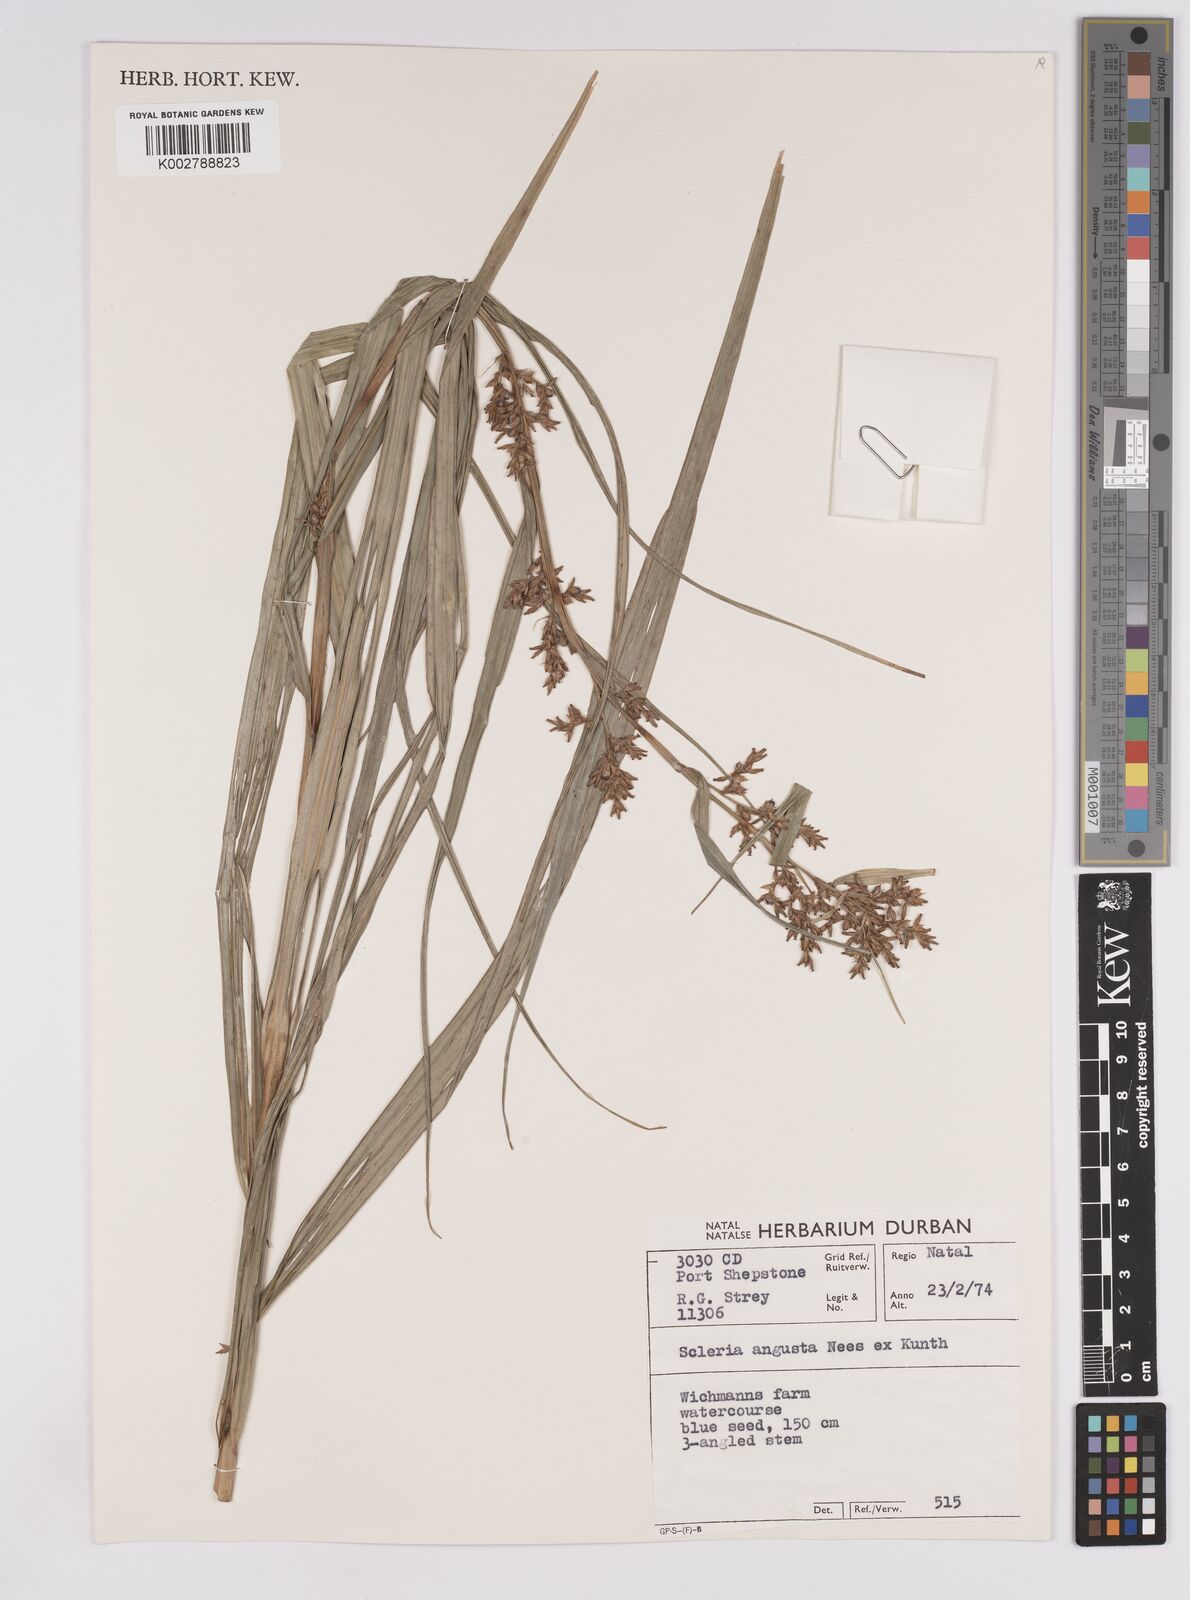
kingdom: Plantae
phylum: Tracheophyta
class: Liliopsida
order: Poales
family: Cyperaceae
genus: Scleria
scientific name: Scleria angusta
